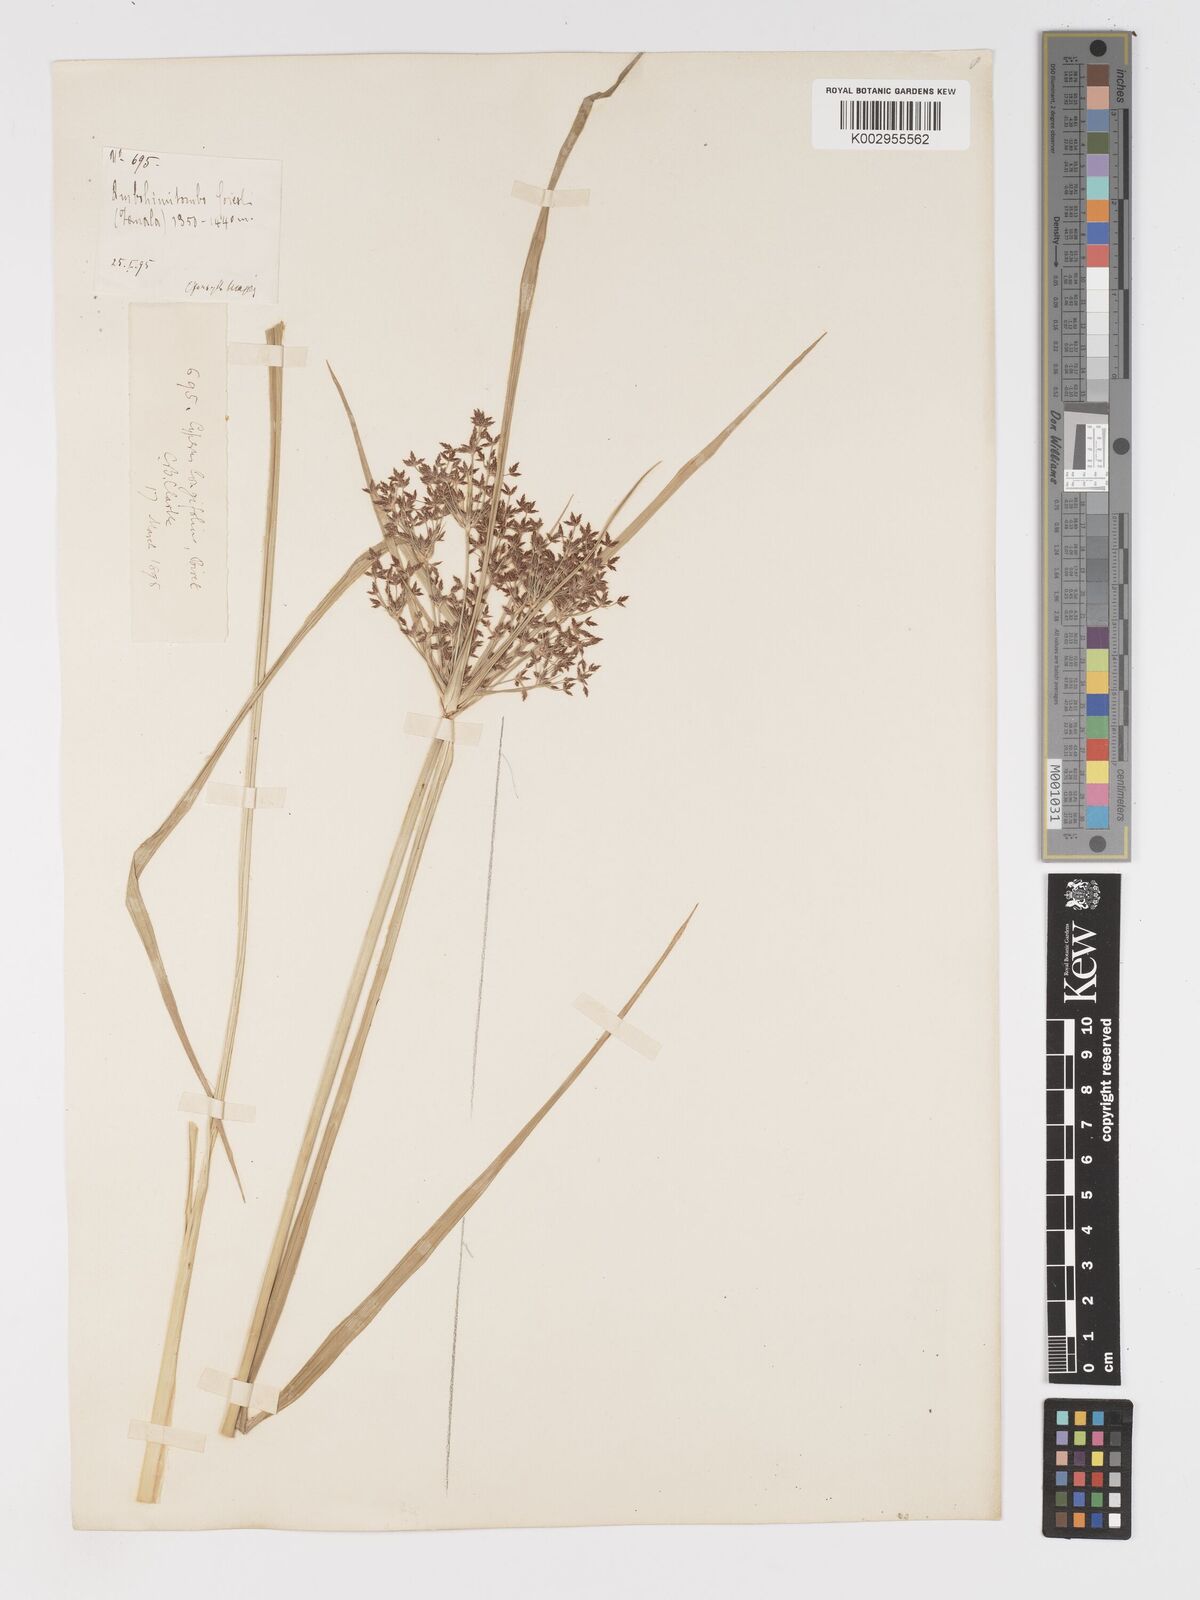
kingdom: Plantae
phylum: Tracheophyta
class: Liliopsida
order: Poales
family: Cyperaceae
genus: Cyperus
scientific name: Cyperus longifolius
